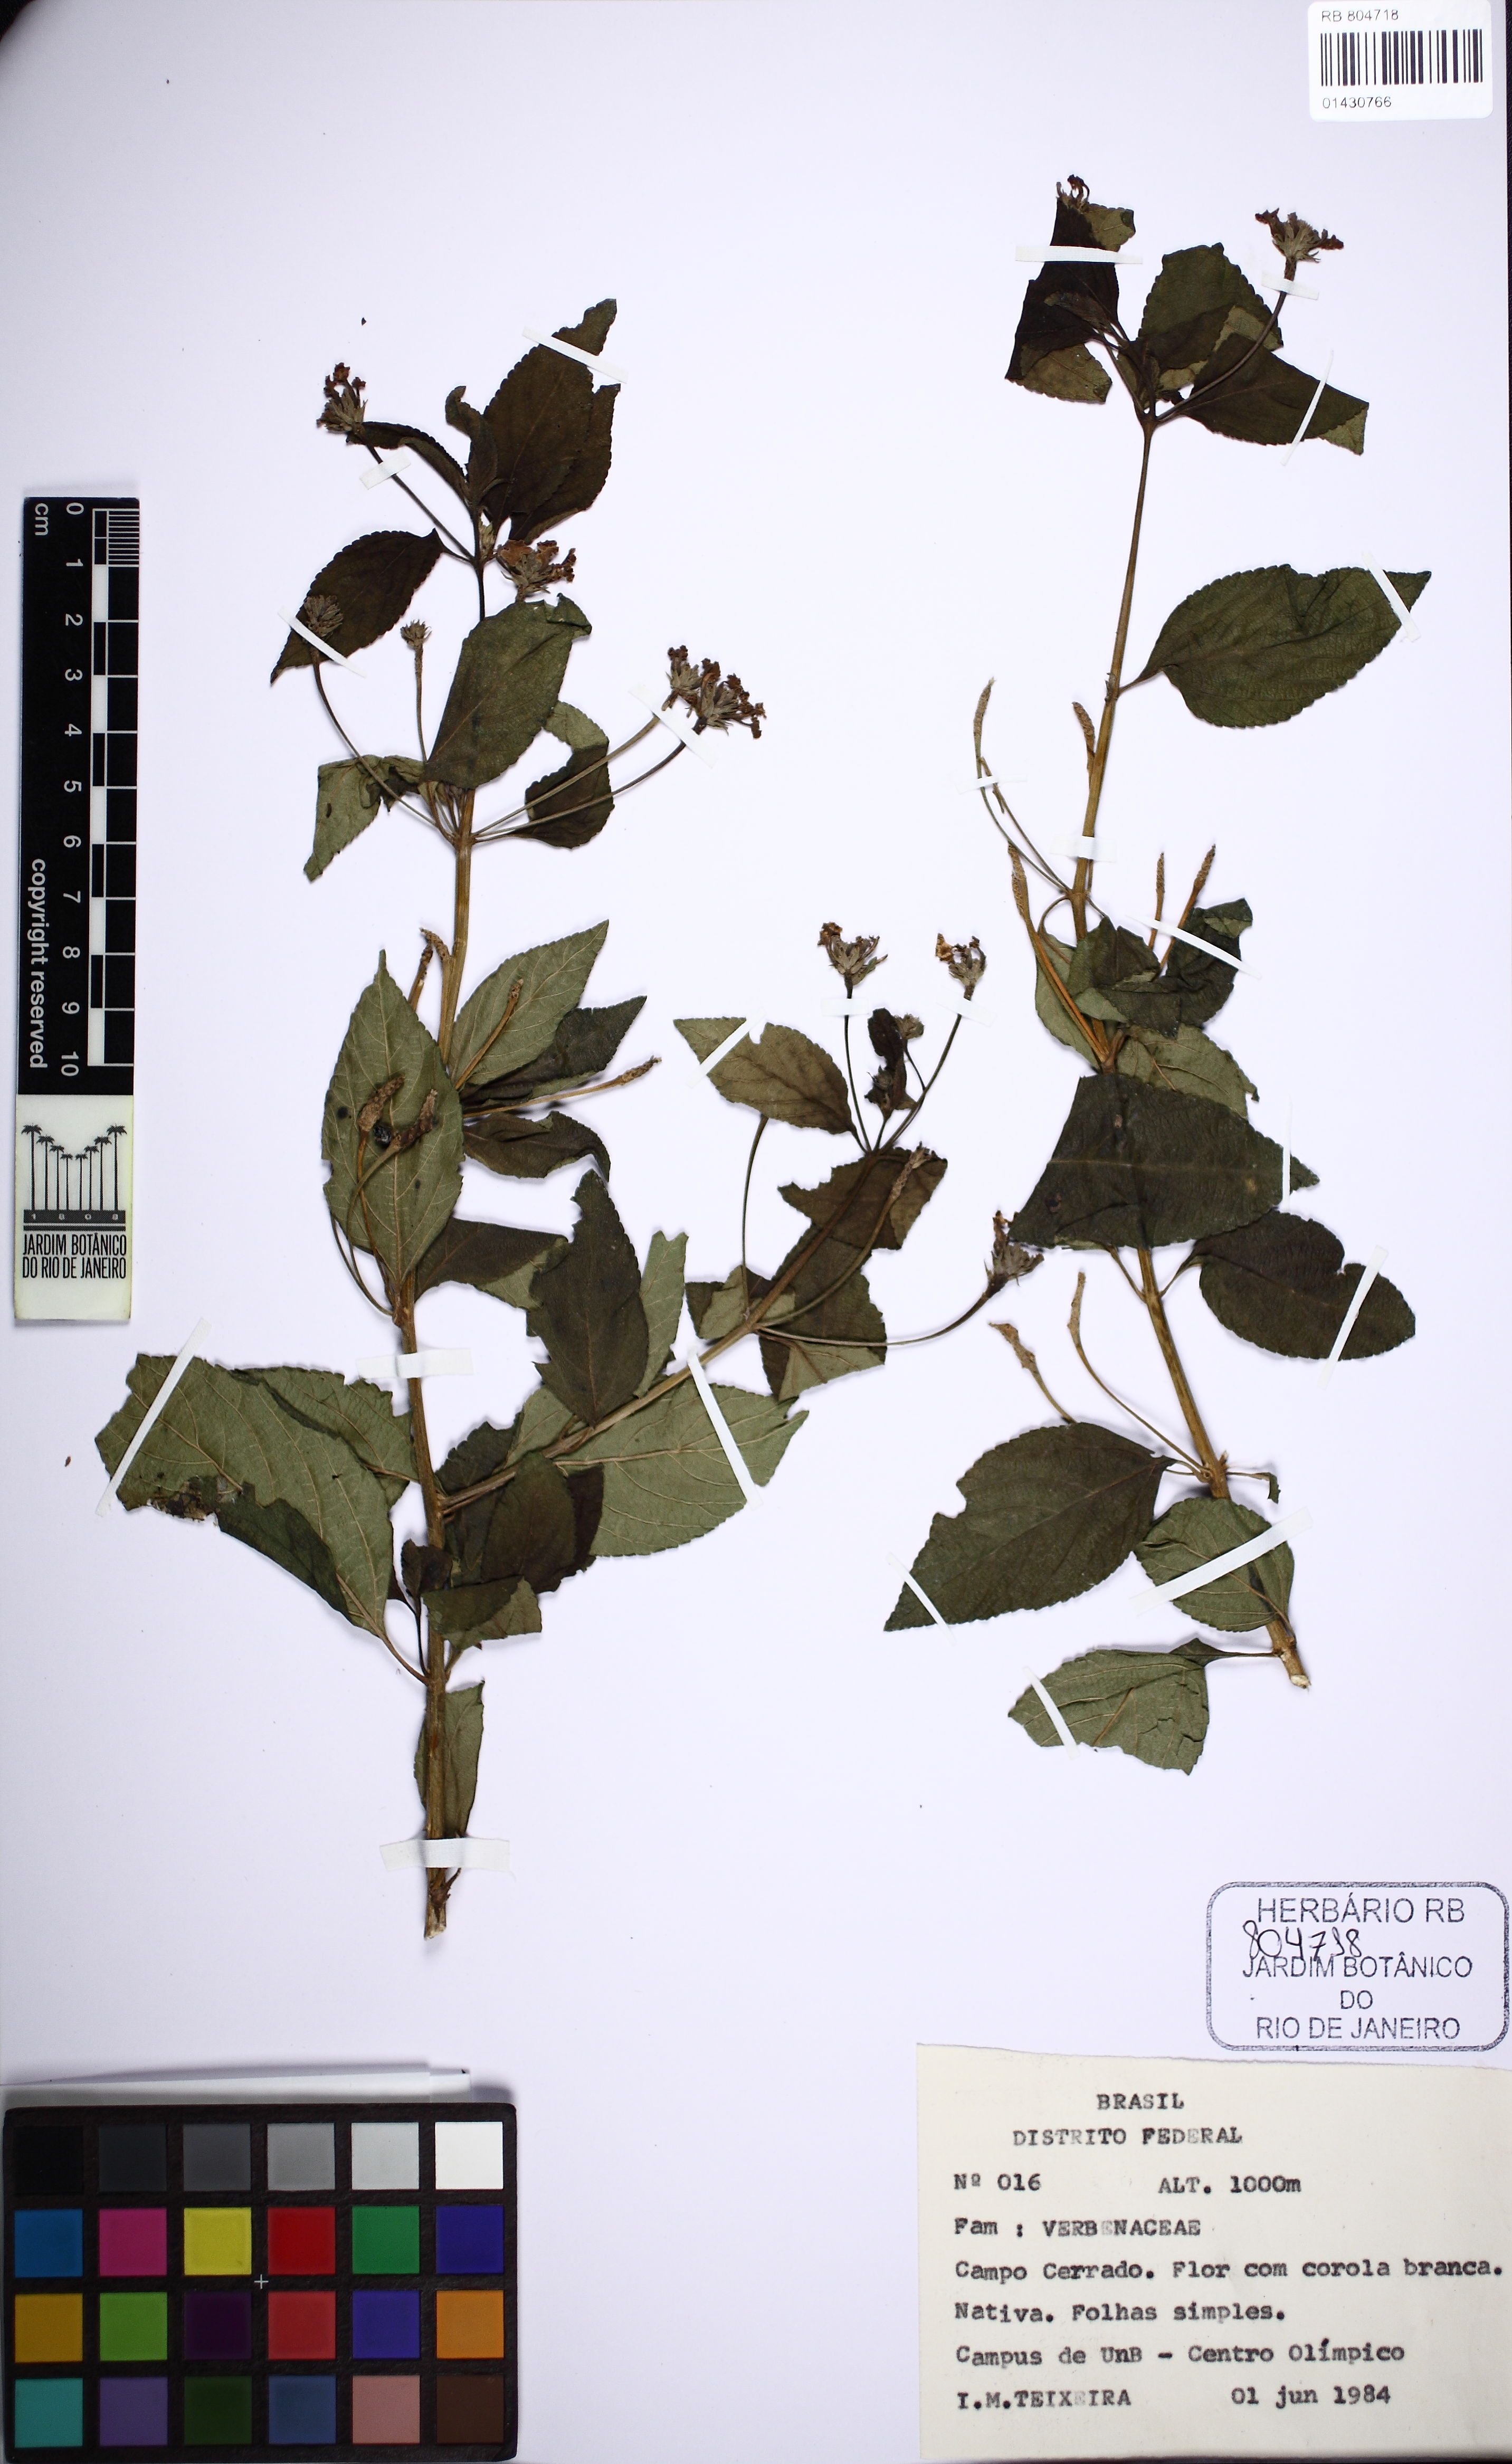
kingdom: Plantae
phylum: Tracheophyta
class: Magnoliopsida
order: Lamiales
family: Verbenaceae
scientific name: Verbenaceae
